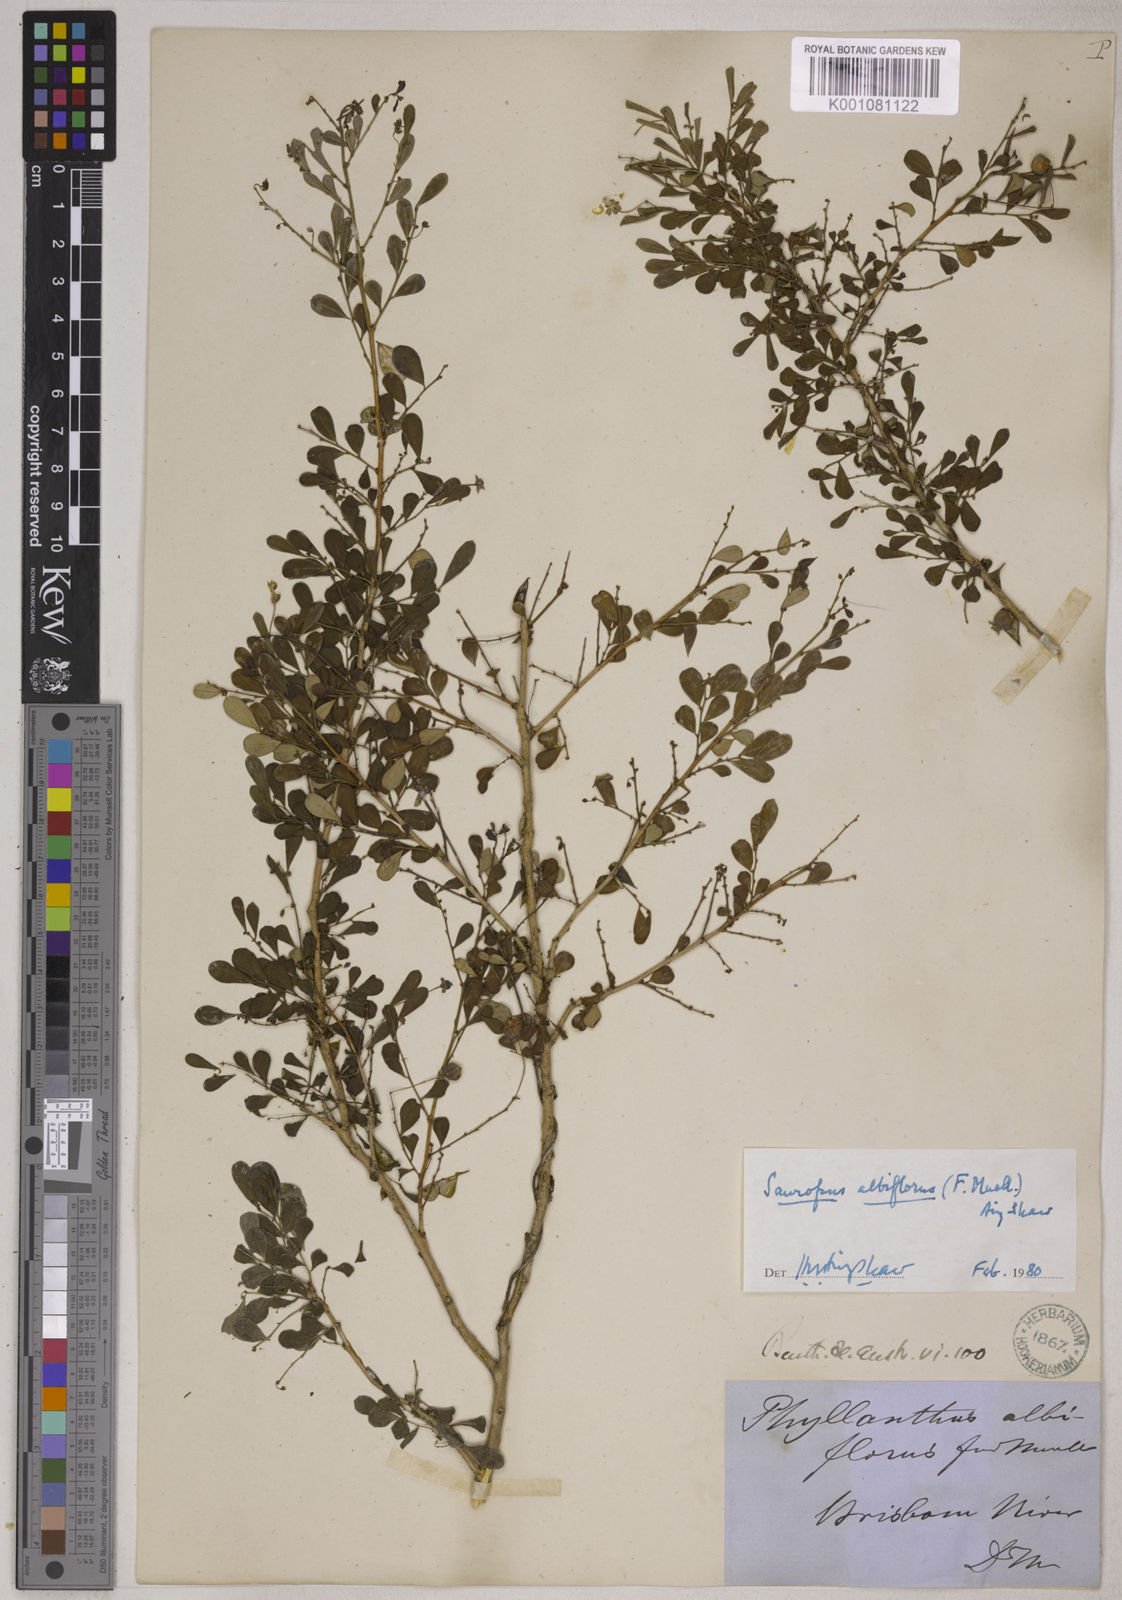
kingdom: Animalia
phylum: Chordata
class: Amphibia
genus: Sauropus
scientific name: Sauropus
